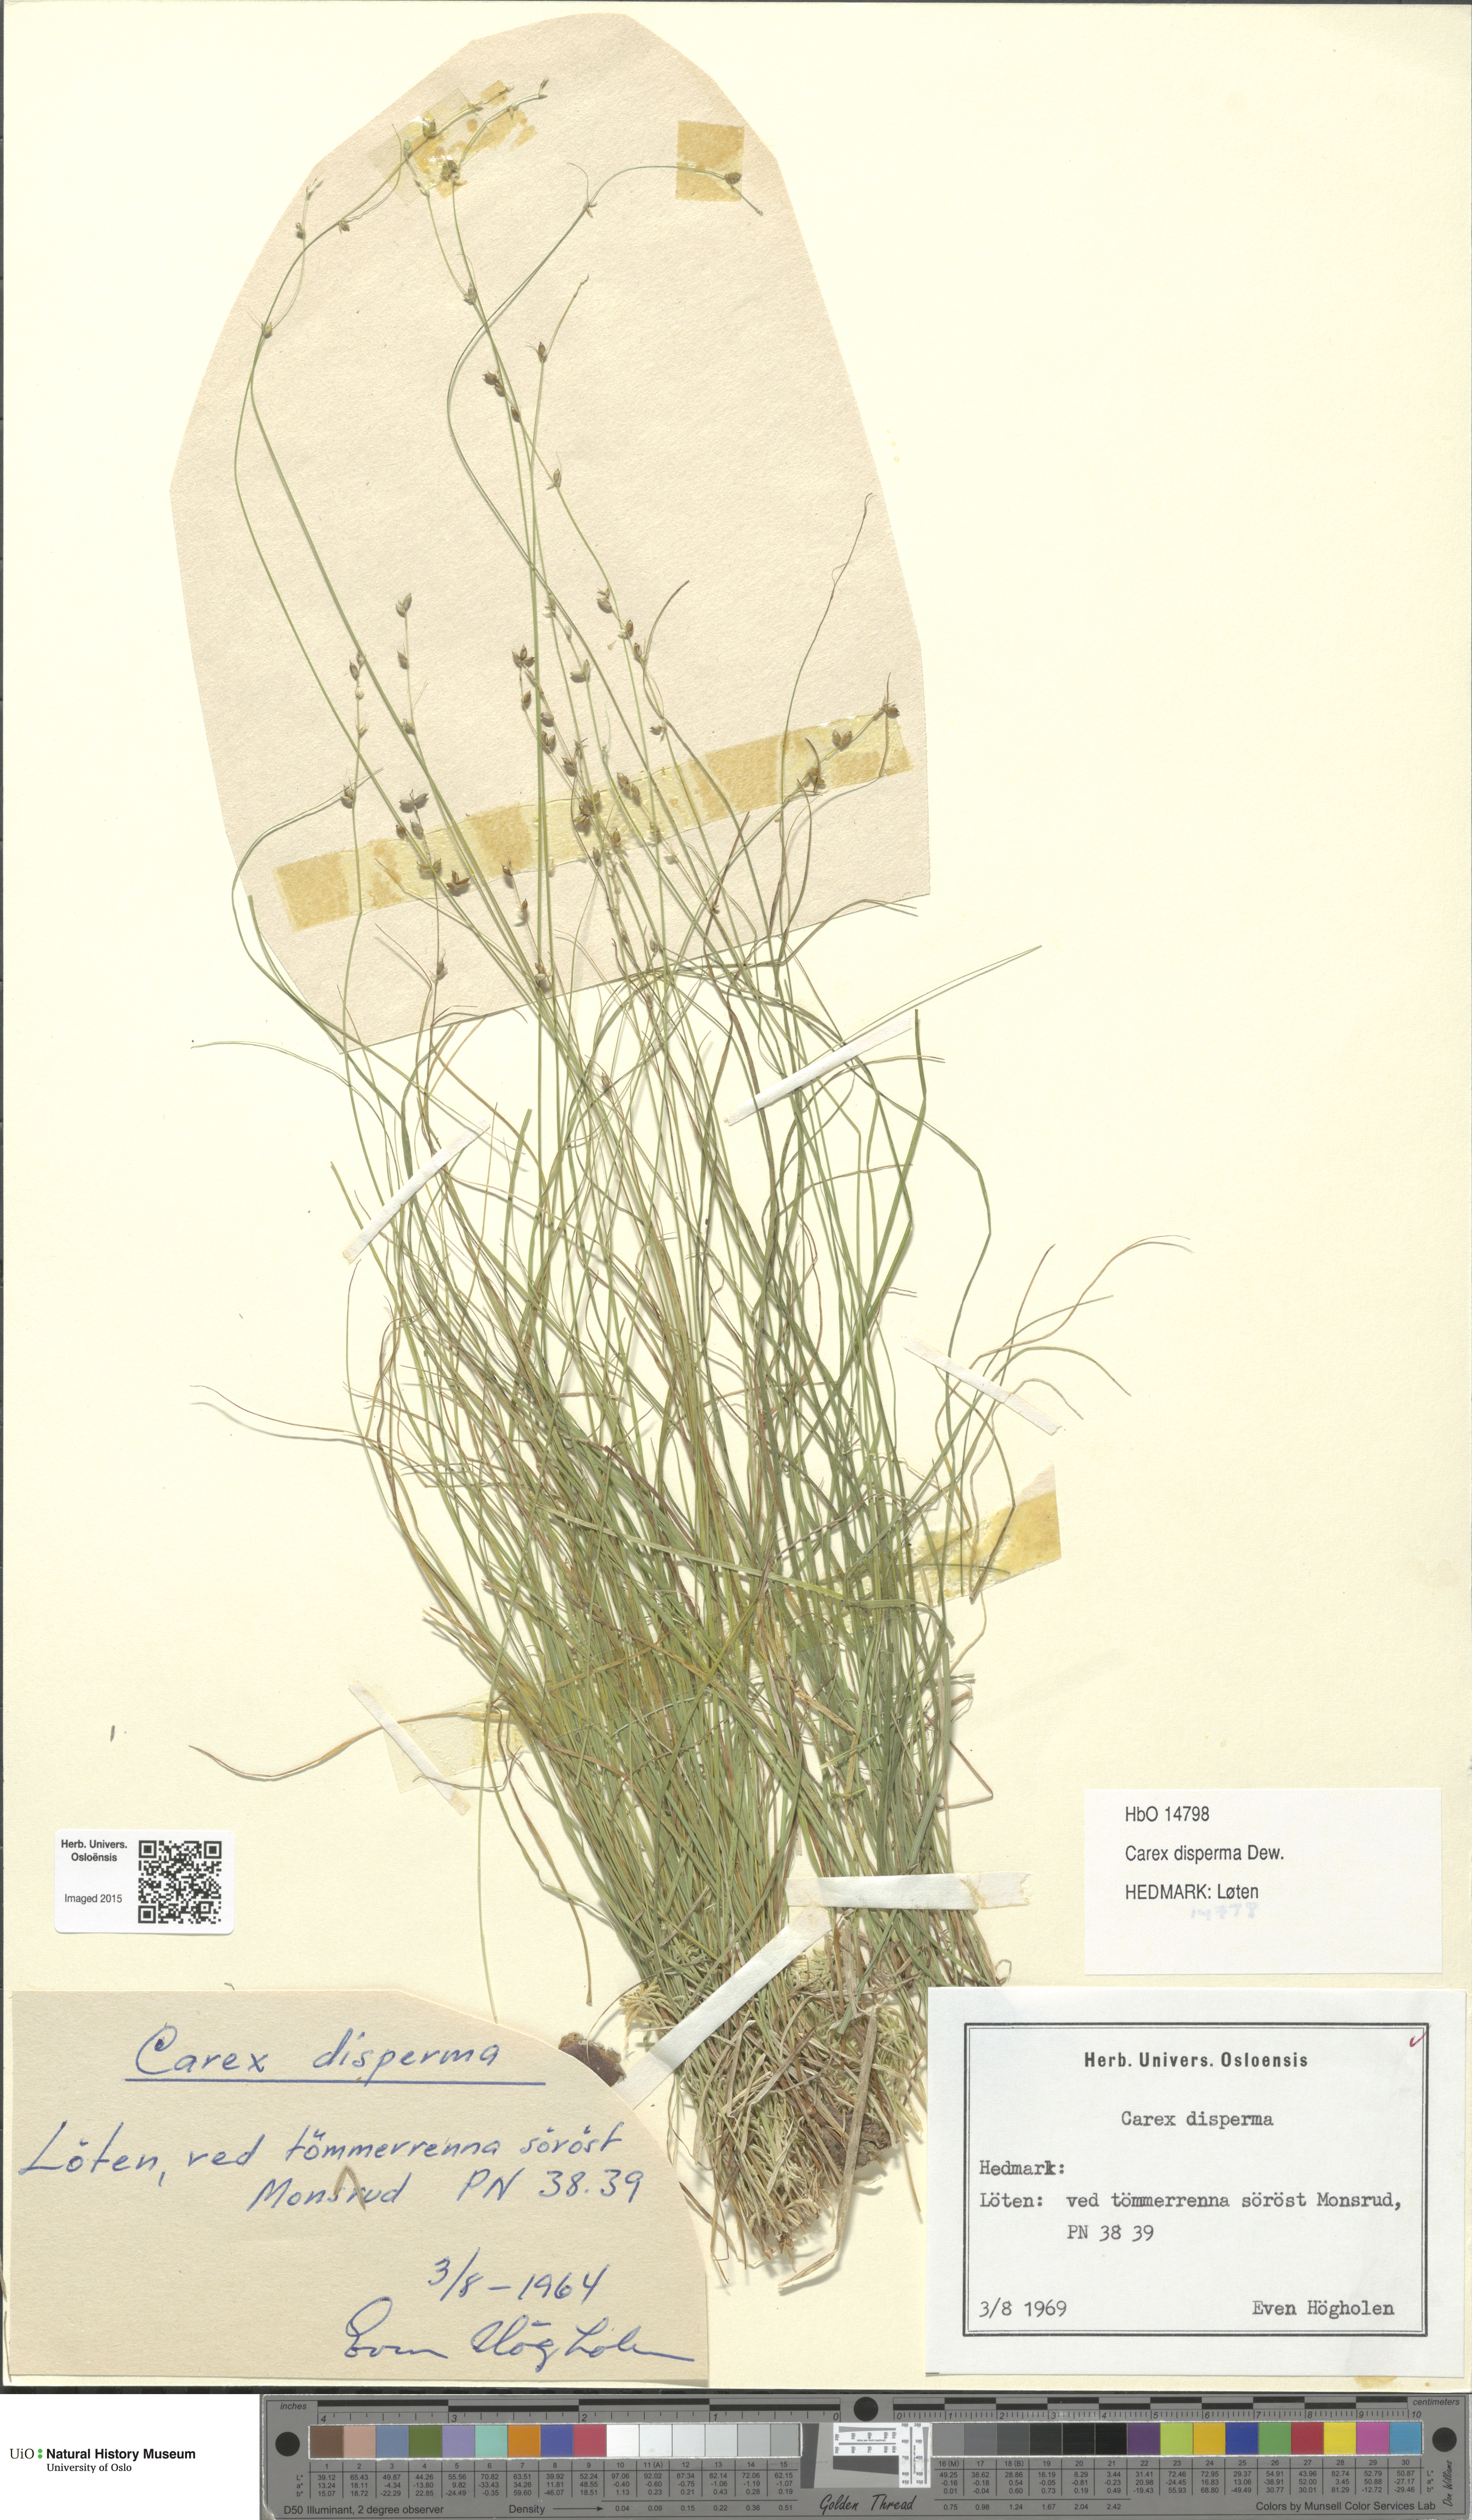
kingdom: Plantae
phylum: Tracheophyta
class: Liliopsida
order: Poales
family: Cyperaceae
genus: Carex
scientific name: Carex disperma
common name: Short-leaved sedge
